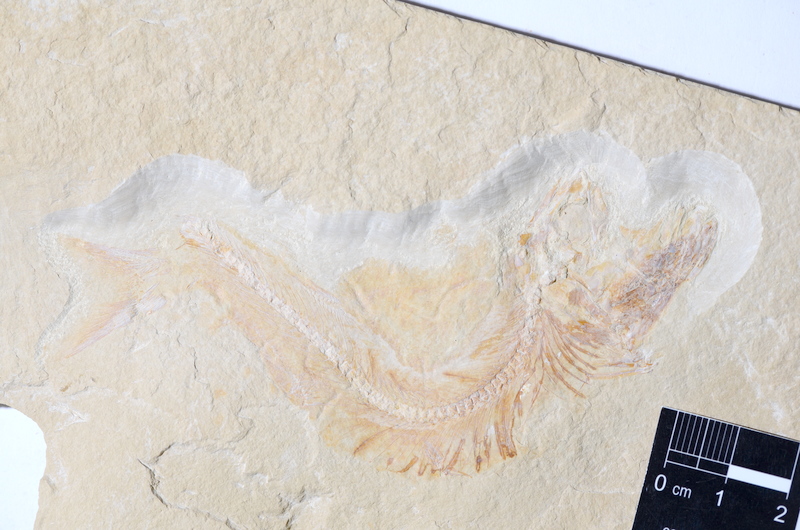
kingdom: Animalia
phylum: Chordata
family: Allothrissopidae
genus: Allothrissops
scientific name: Allothrissops
